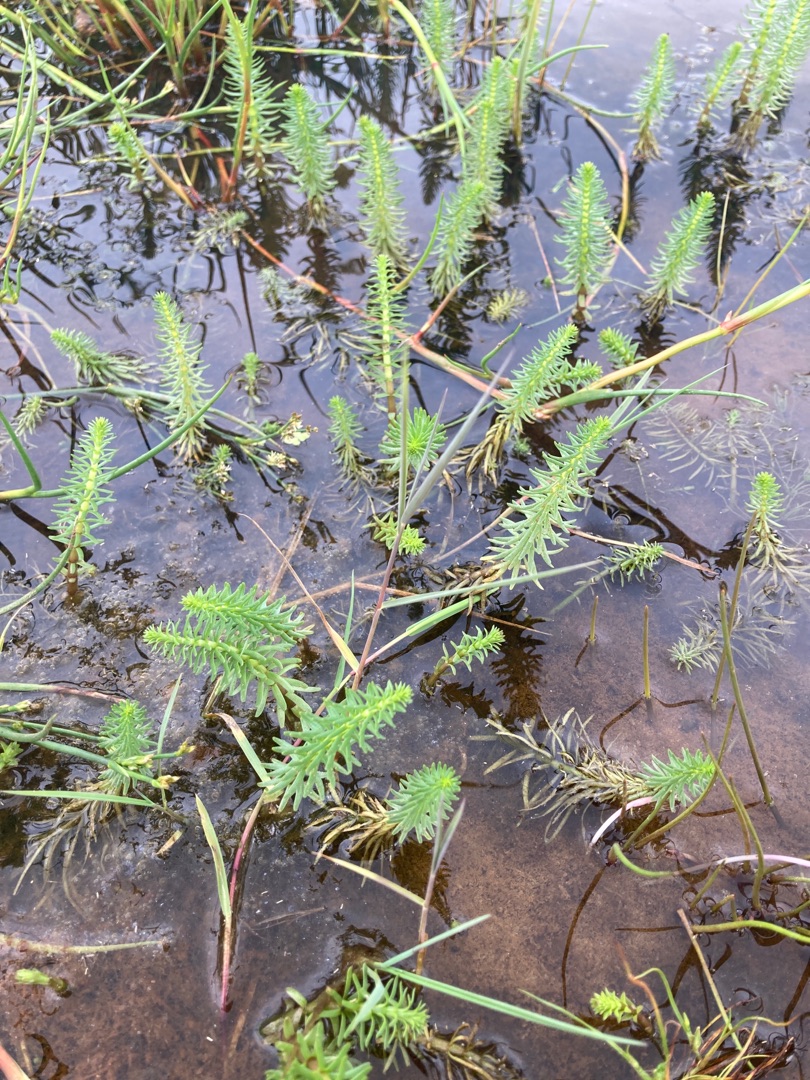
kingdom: Plantae
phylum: Tracheophyta
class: Magnoliopsida
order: Lamiales
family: Plantaginaceae
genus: Hippuris
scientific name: Hippuris vulgaris
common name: Vandspir
